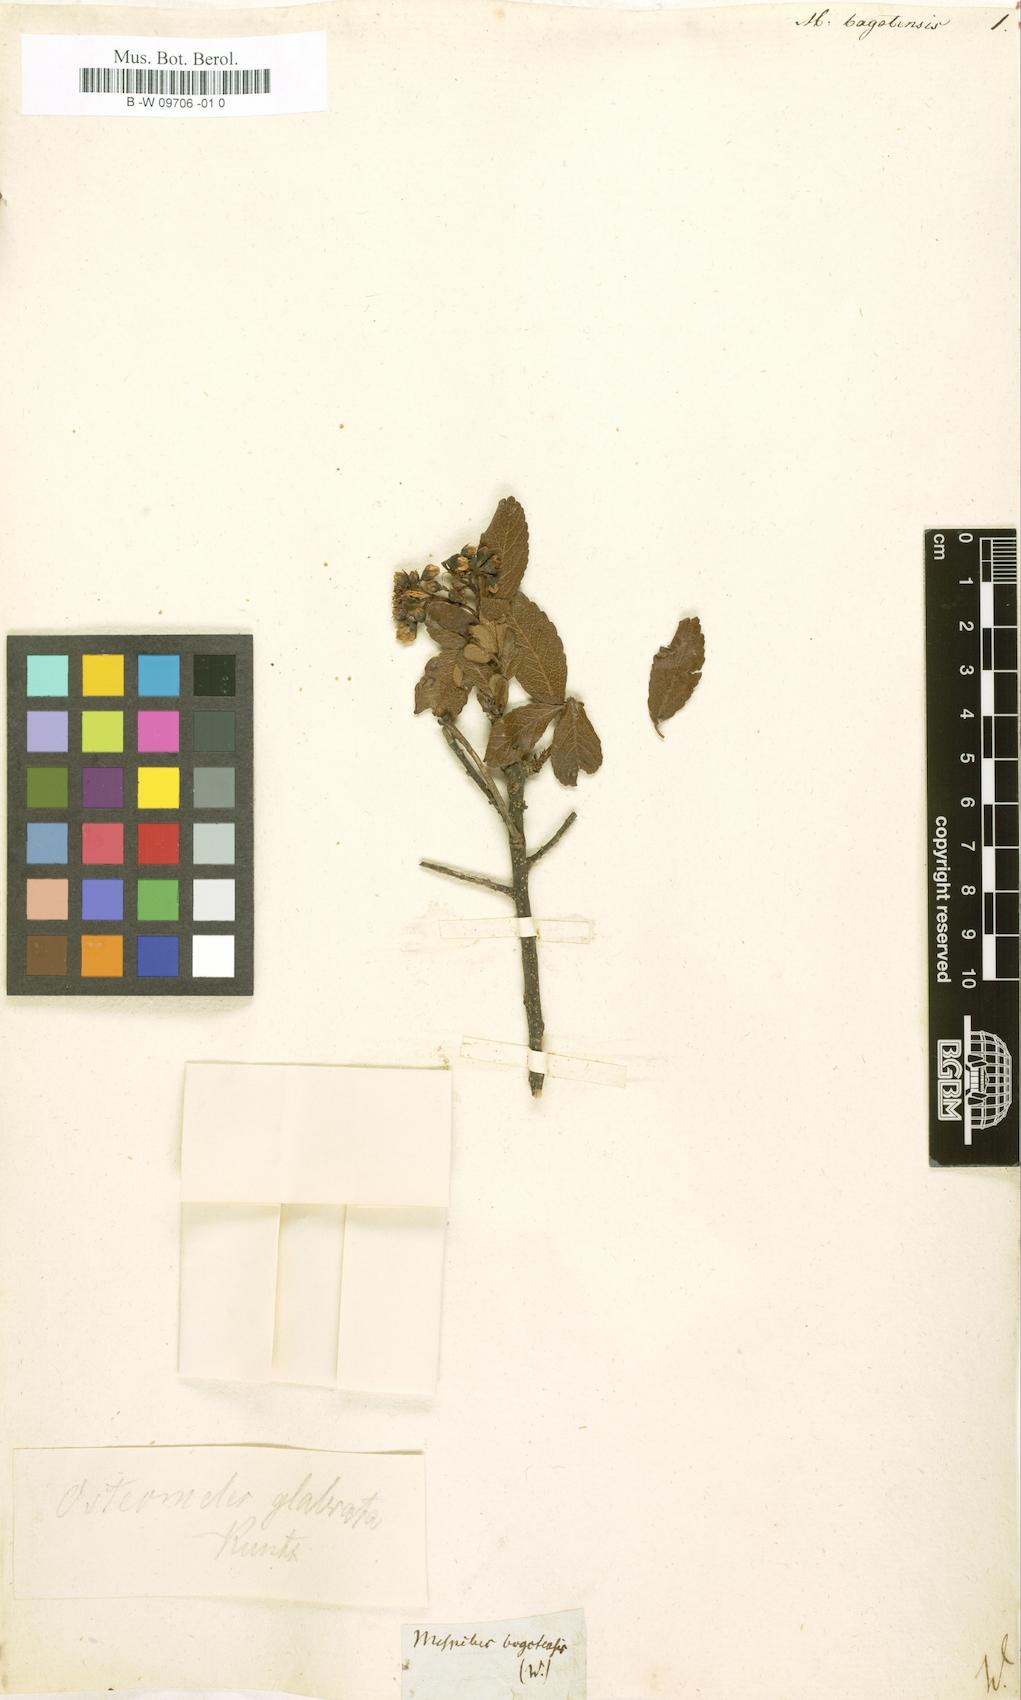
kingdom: Plantae
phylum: Tracheophyta
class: Magnoliopsida
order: Rosales
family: Rosaceae
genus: Mespilus
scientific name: Mespilus
